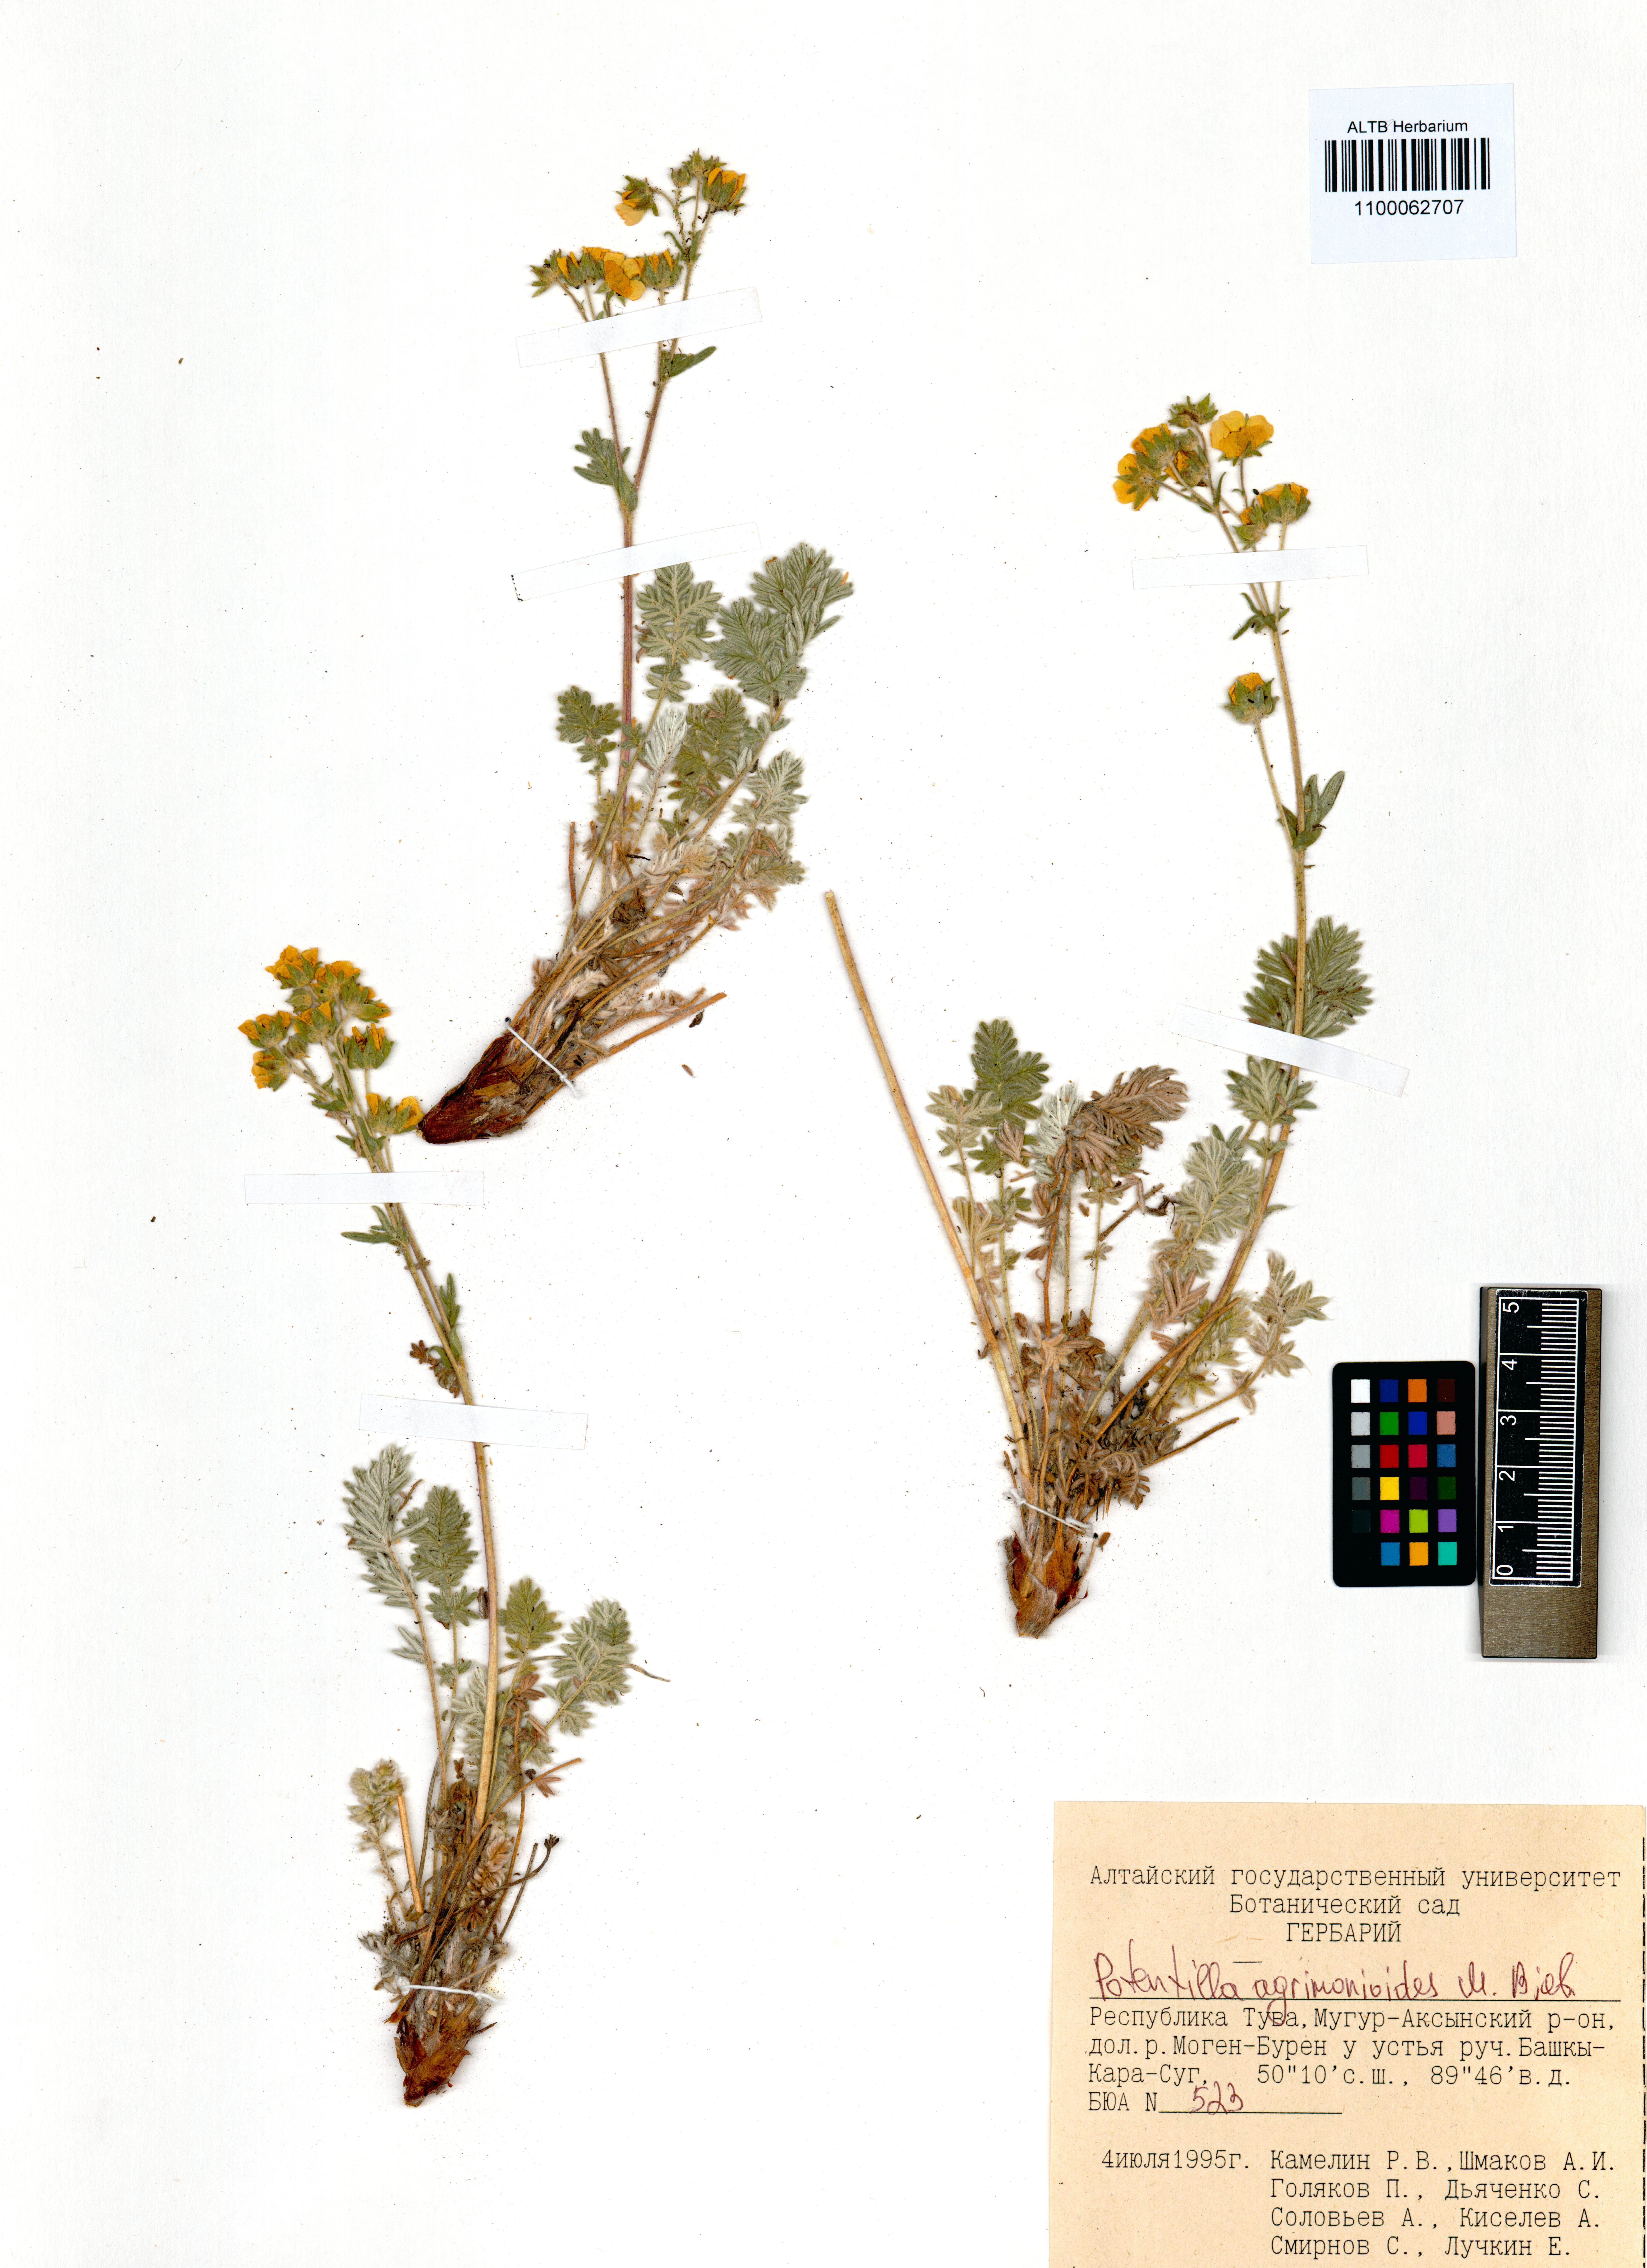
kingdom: Plantae
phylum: Tracheophyta
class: Magnoliopsida
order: Rosales
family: Rosaceae
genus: Potentilla
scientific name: Potentilla agrimonioides
